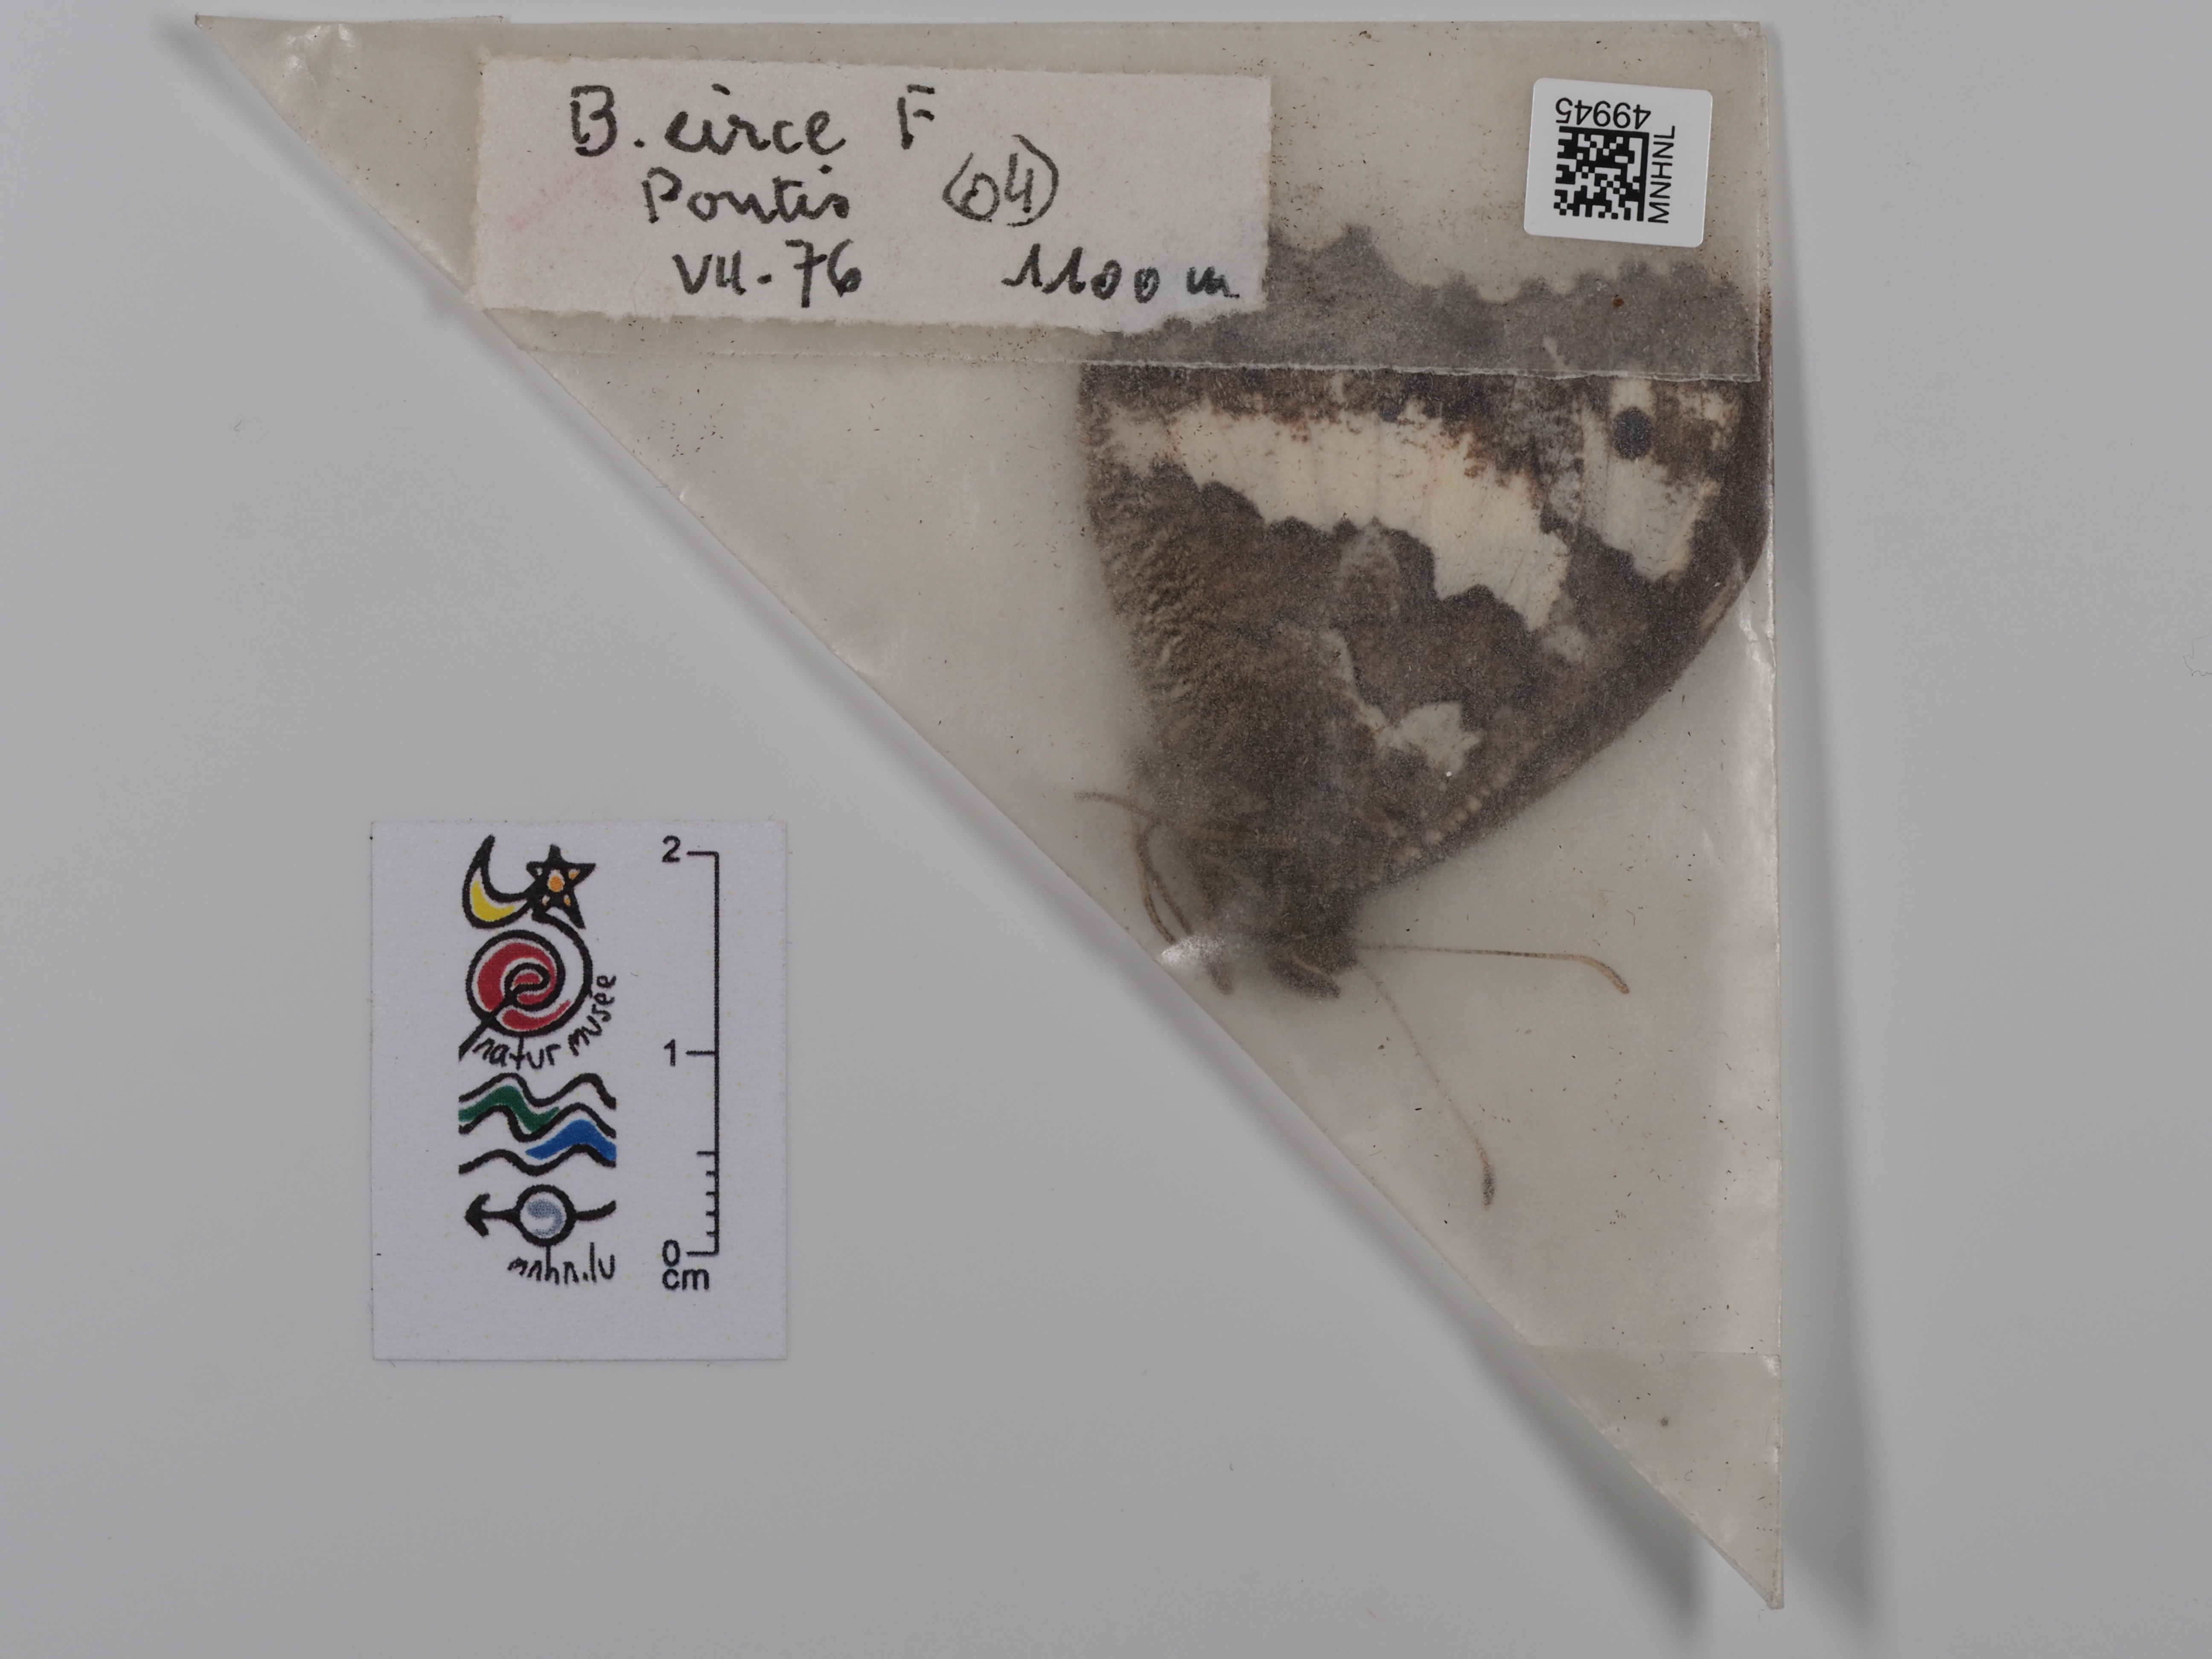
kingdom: Animalia
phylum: Arthropoda
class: Insecta
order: Lepidoptera
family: Lycaenidae
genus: Loweia
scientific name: Loweia tityrus
